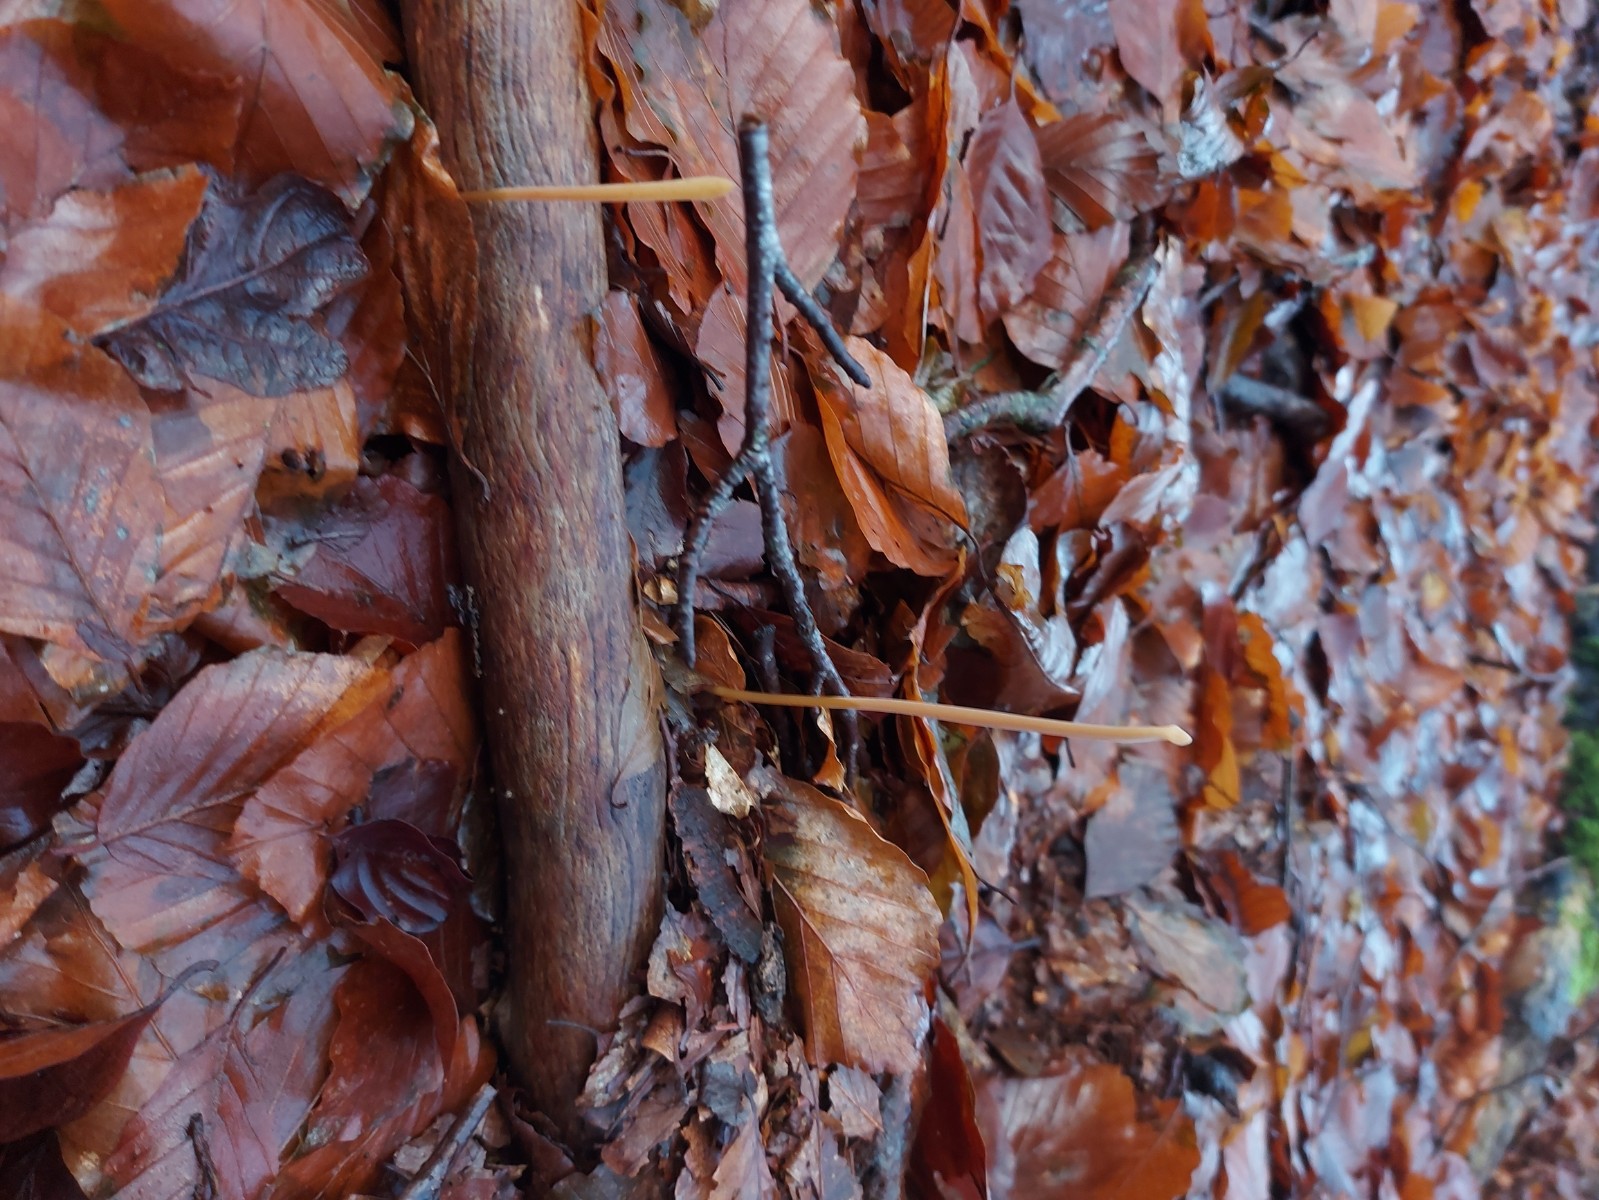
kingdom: Fungi
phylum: Basidiomycota
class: Agaricomycetes
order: Agaricales
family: Typhulaceae
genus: Typhula
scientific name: Typhula fistulosa
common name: pibet rørkølle
